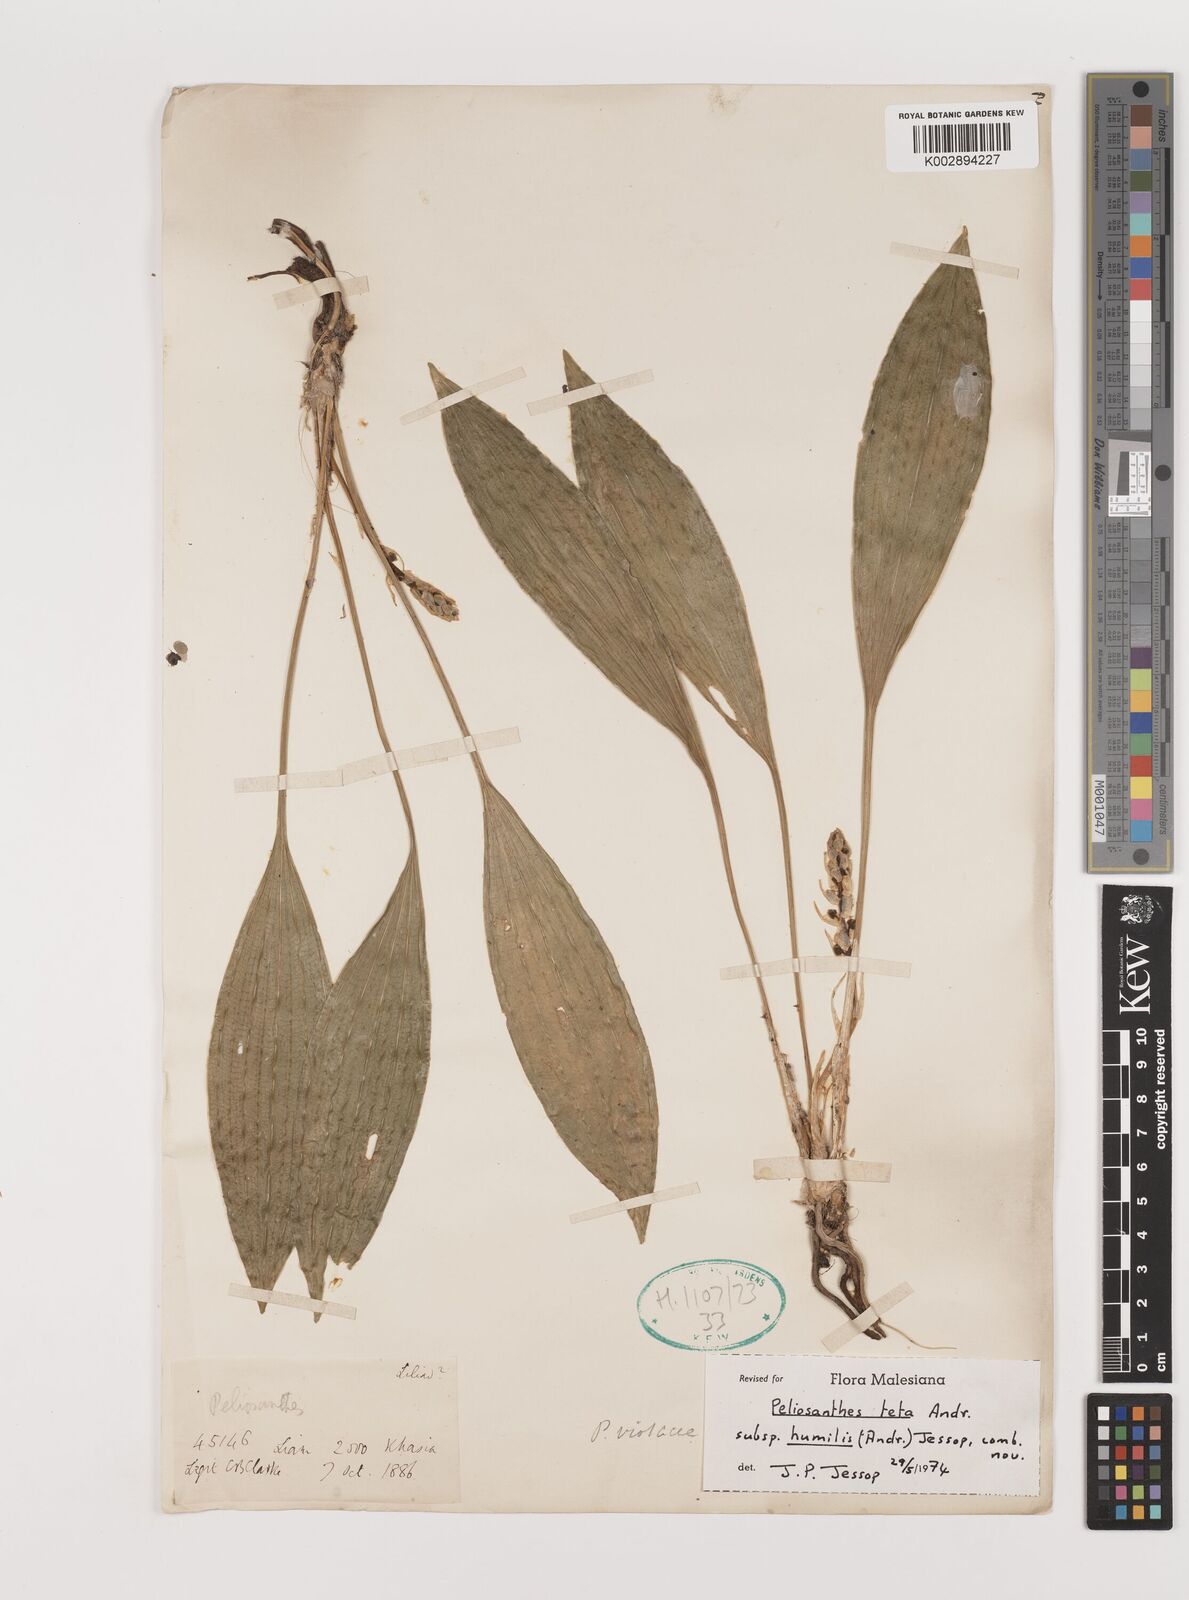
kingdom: Plantae
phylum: Tracheophyta
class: Liliopsida
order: Asparagales
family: Asparagaceae
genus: Peliosanthes
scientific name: Peliosanthes teta
